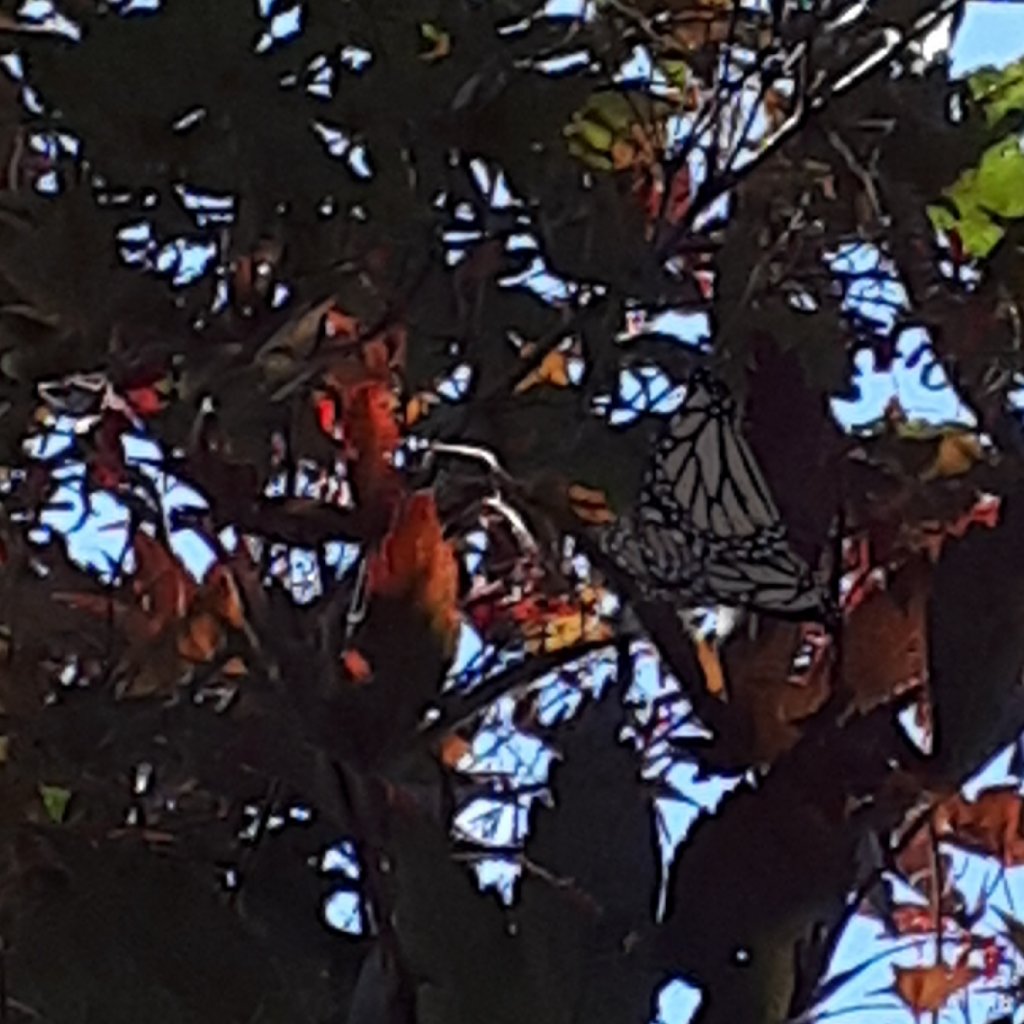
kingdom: Animalia
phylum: Arthropoda
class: Insecta
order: Lepidoptera
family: Nymphalidae
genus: Danaus
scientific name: Danaus plexippus
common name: Monarch
